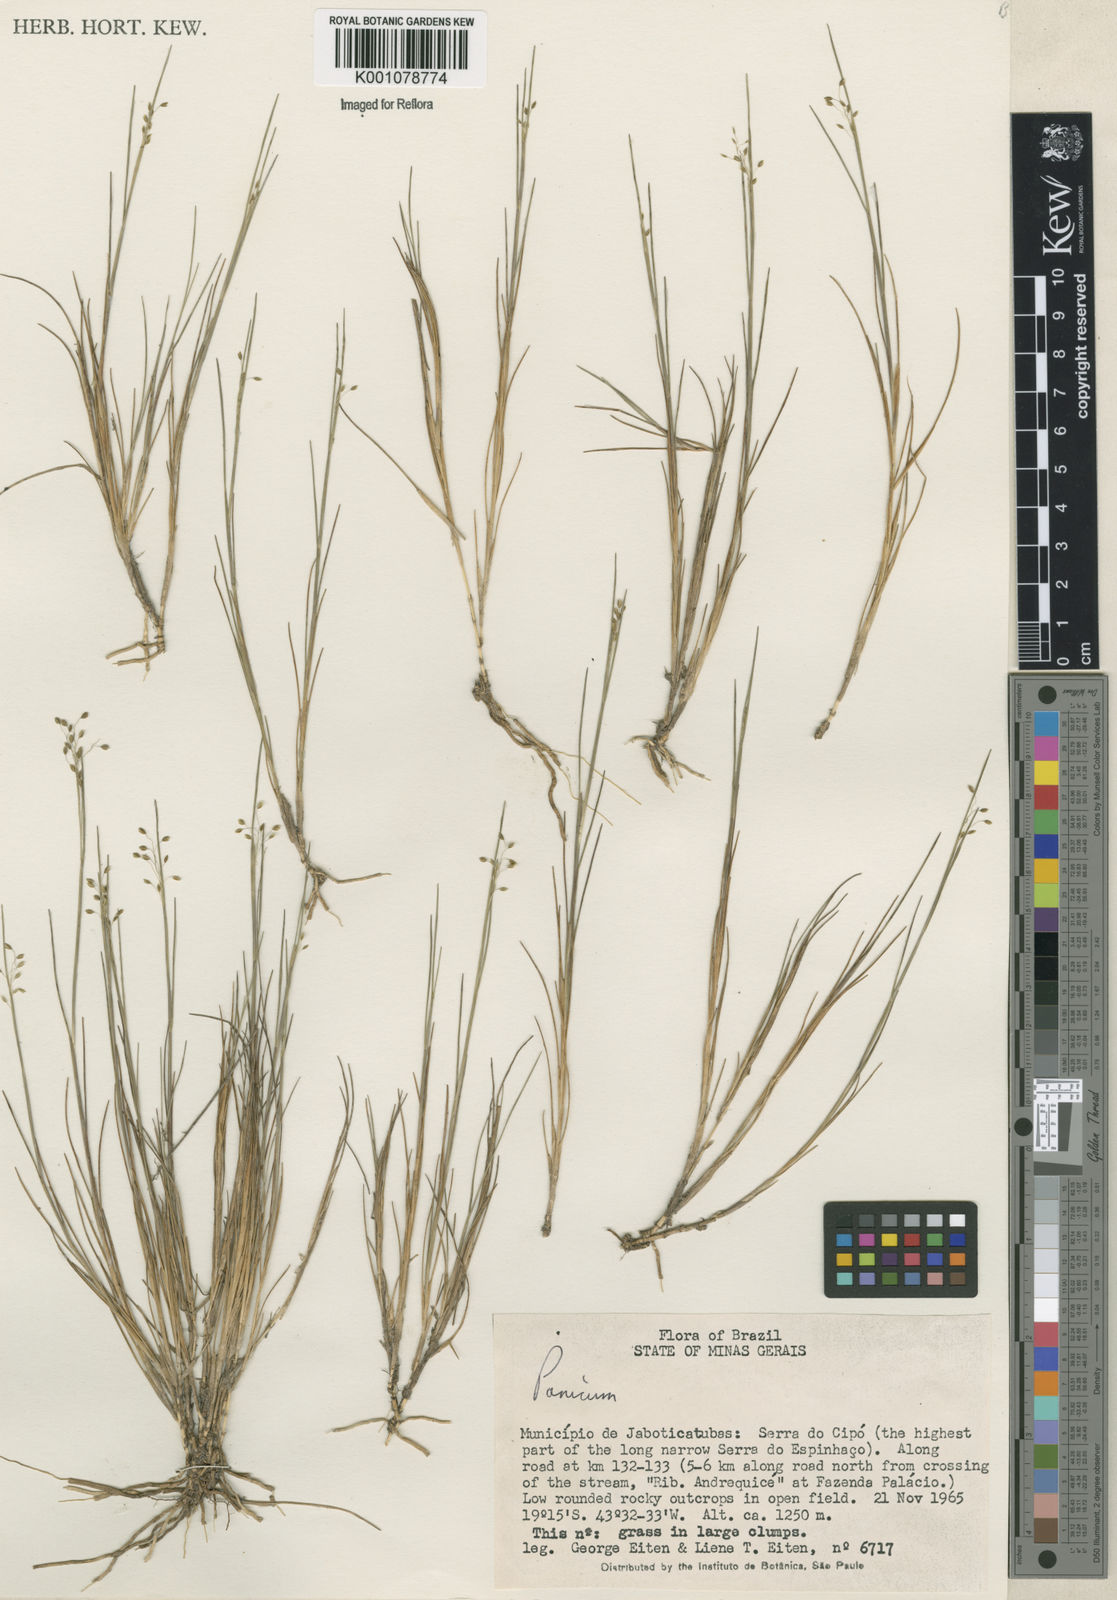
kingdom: Plantae
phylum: Tracheophyta
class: Liliopsida
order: Poales
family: Poaceae
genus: Panicum
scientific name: Panicum
